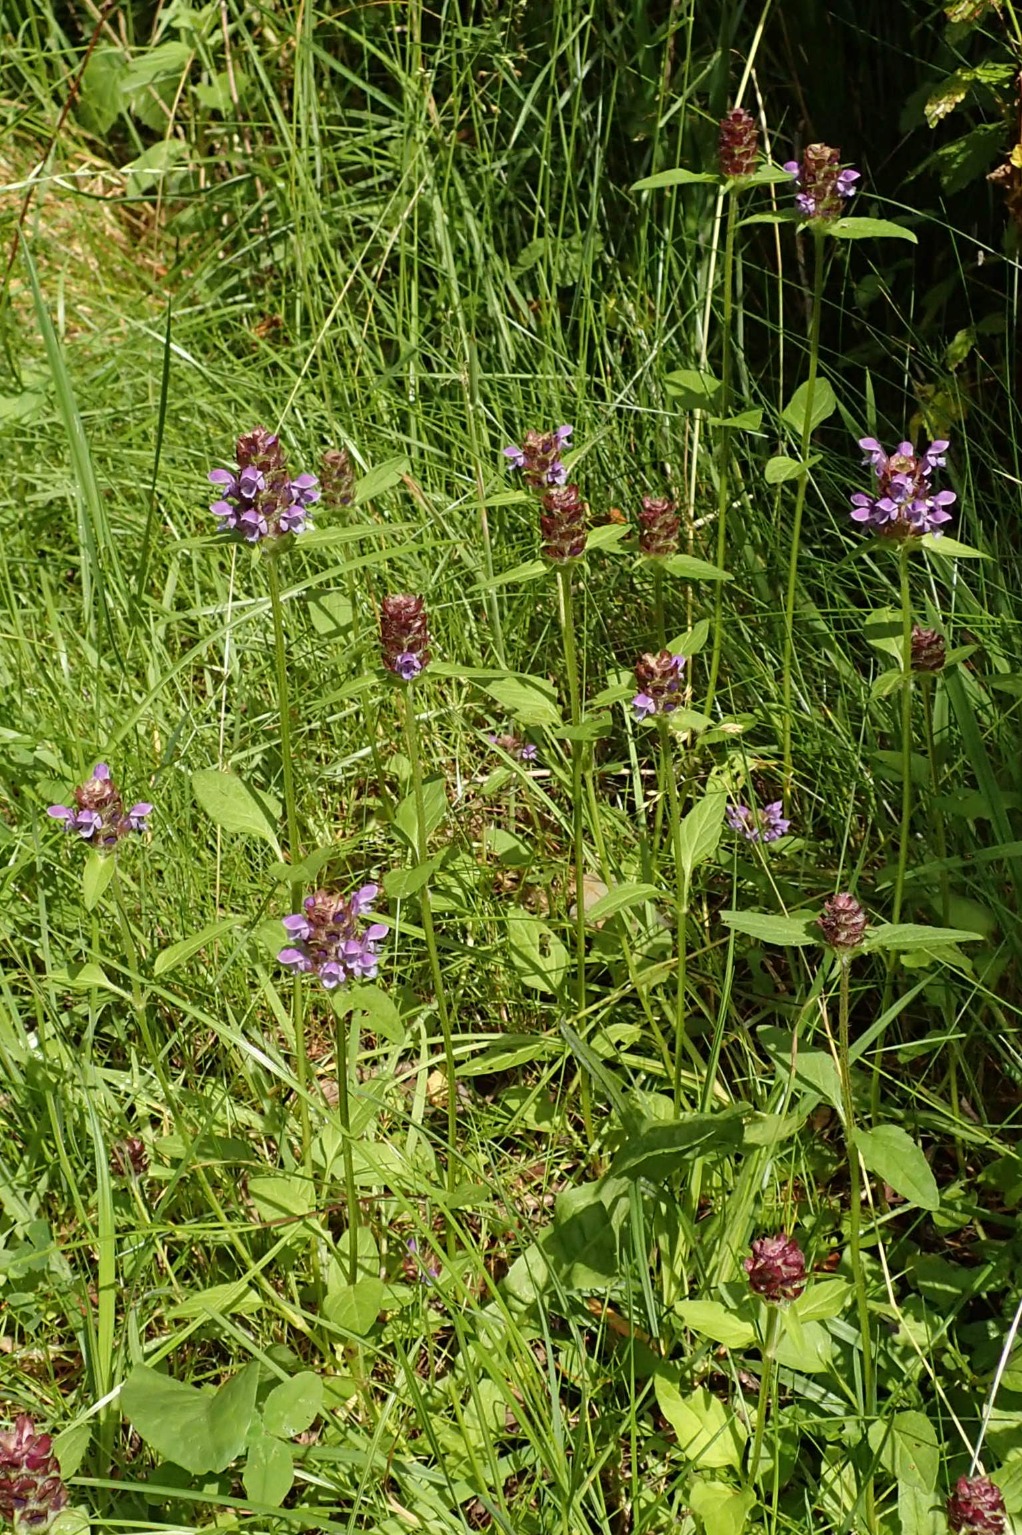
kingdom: Plantae
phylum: Tracheophyta
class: Magnoliopsida
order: Lamiales
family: Lamiaceae
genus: Prunella
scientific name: Prunella vulgaris
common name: Almindelig brunelle
